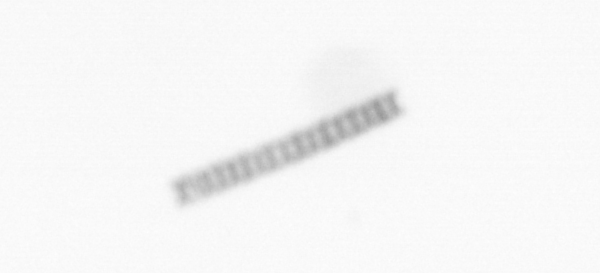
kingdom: Chromista
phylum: Ochrophyta
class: Bacillariophyceae
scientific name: Bacillariophyceae
